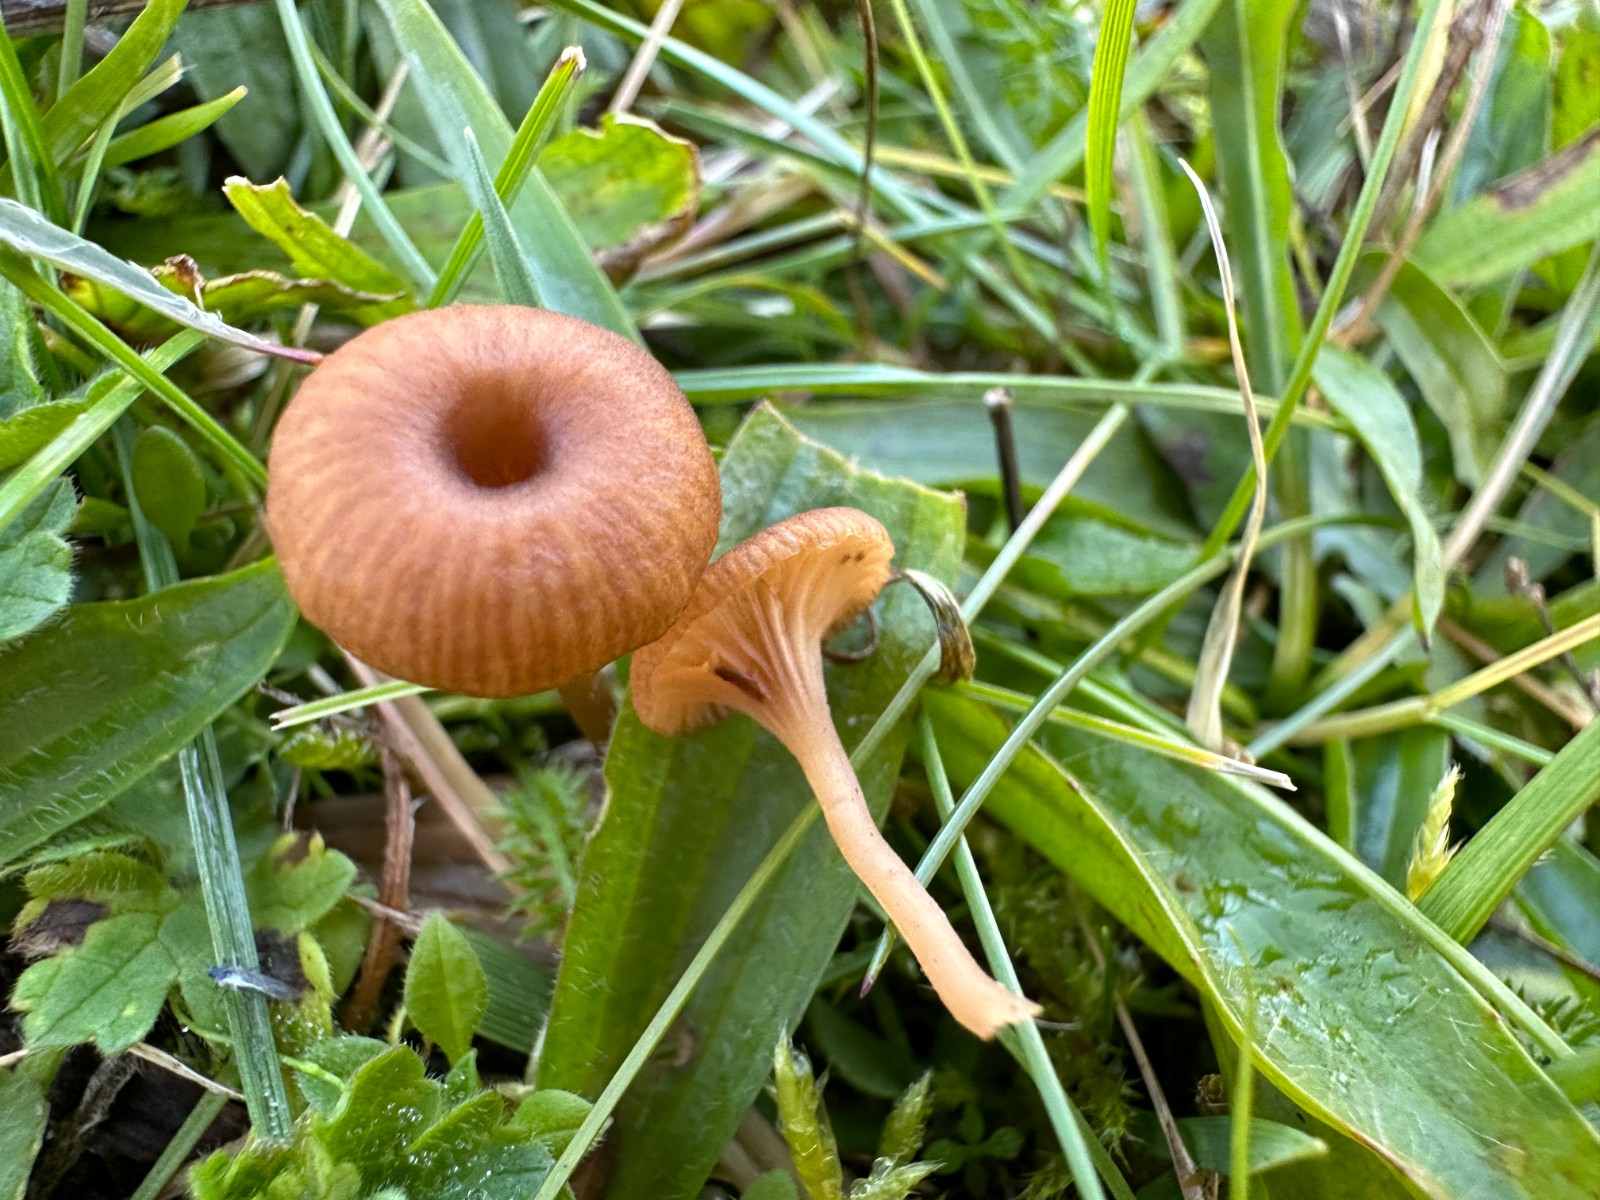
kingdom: Fungi
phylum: Basidiomycota
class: Agaricomycetes
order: Agaricales
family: Tricholomataceae
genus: Omphalina
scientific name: Omphalina pyxidata
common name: rødbrun navlehat
